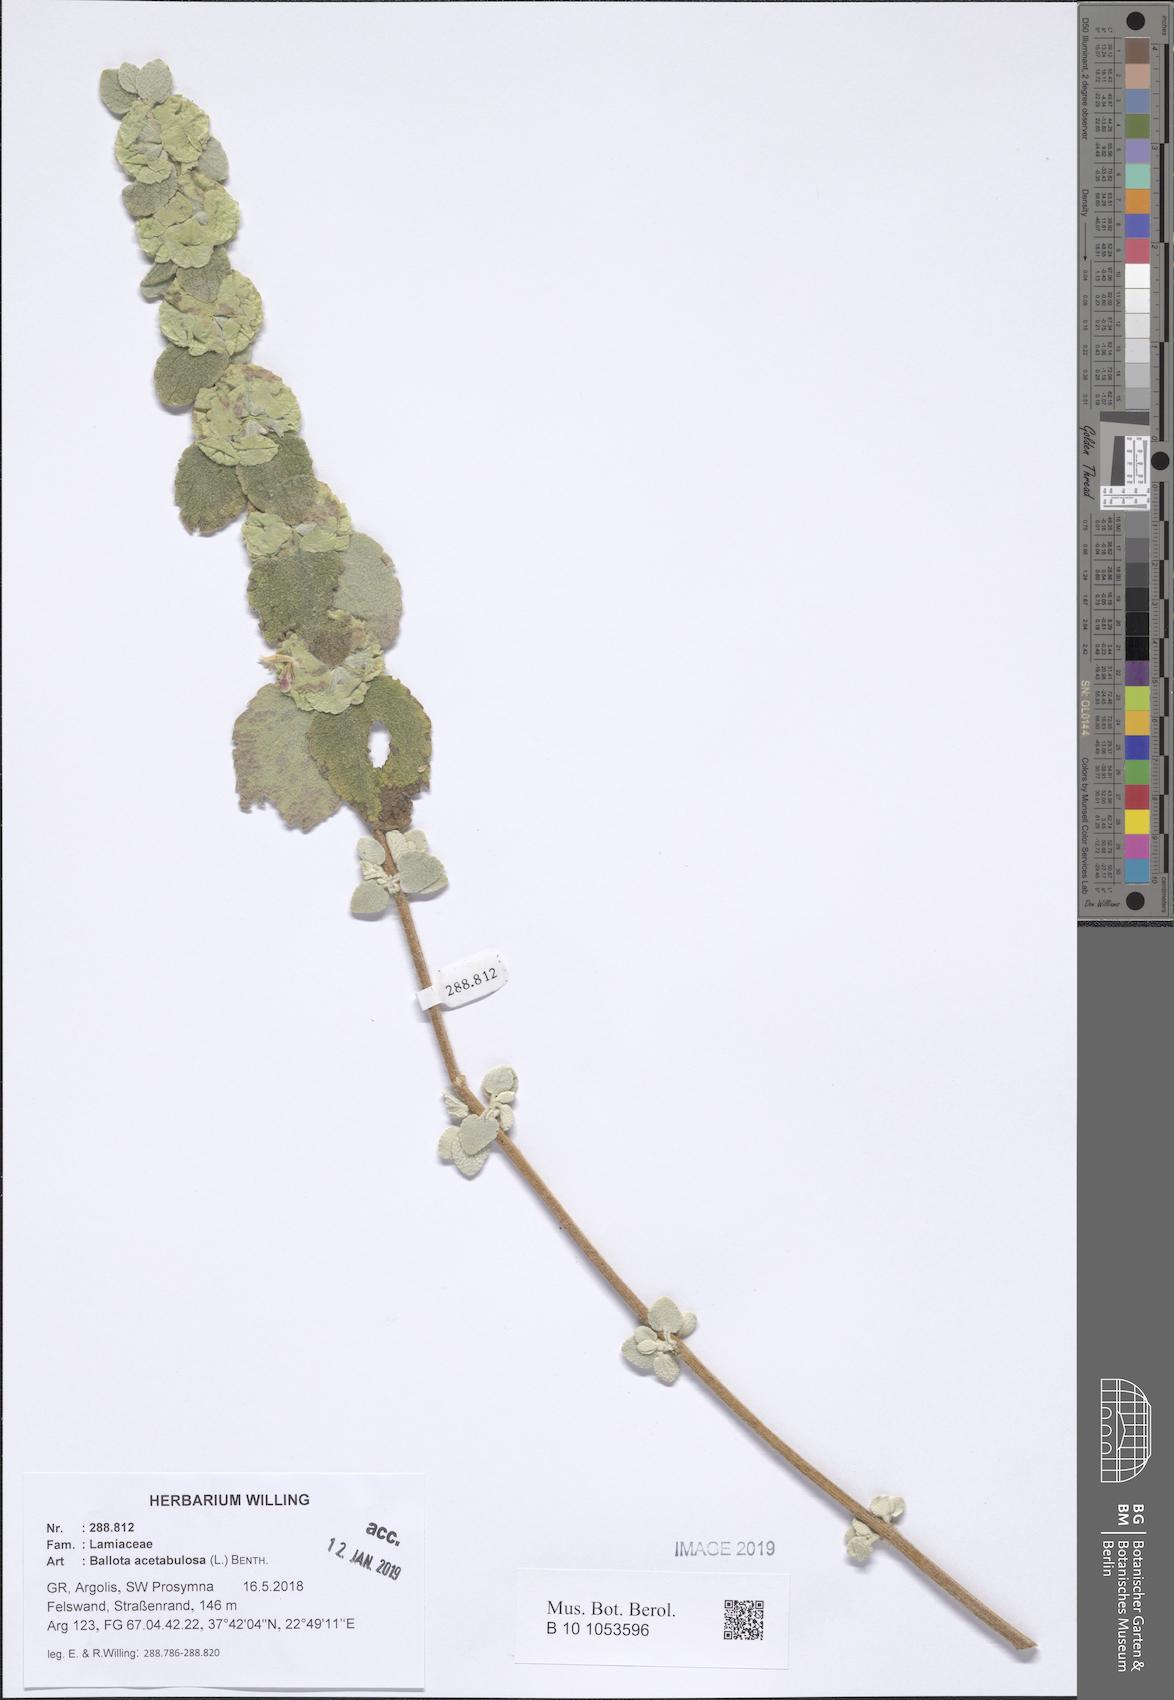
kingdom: Plantae
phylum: Tracheophyta
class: Magnoliopsida
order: Lamiales
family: Lamiaceae
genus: Pseudodictamnus
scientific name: Pseudodictamnus acetabulosus
